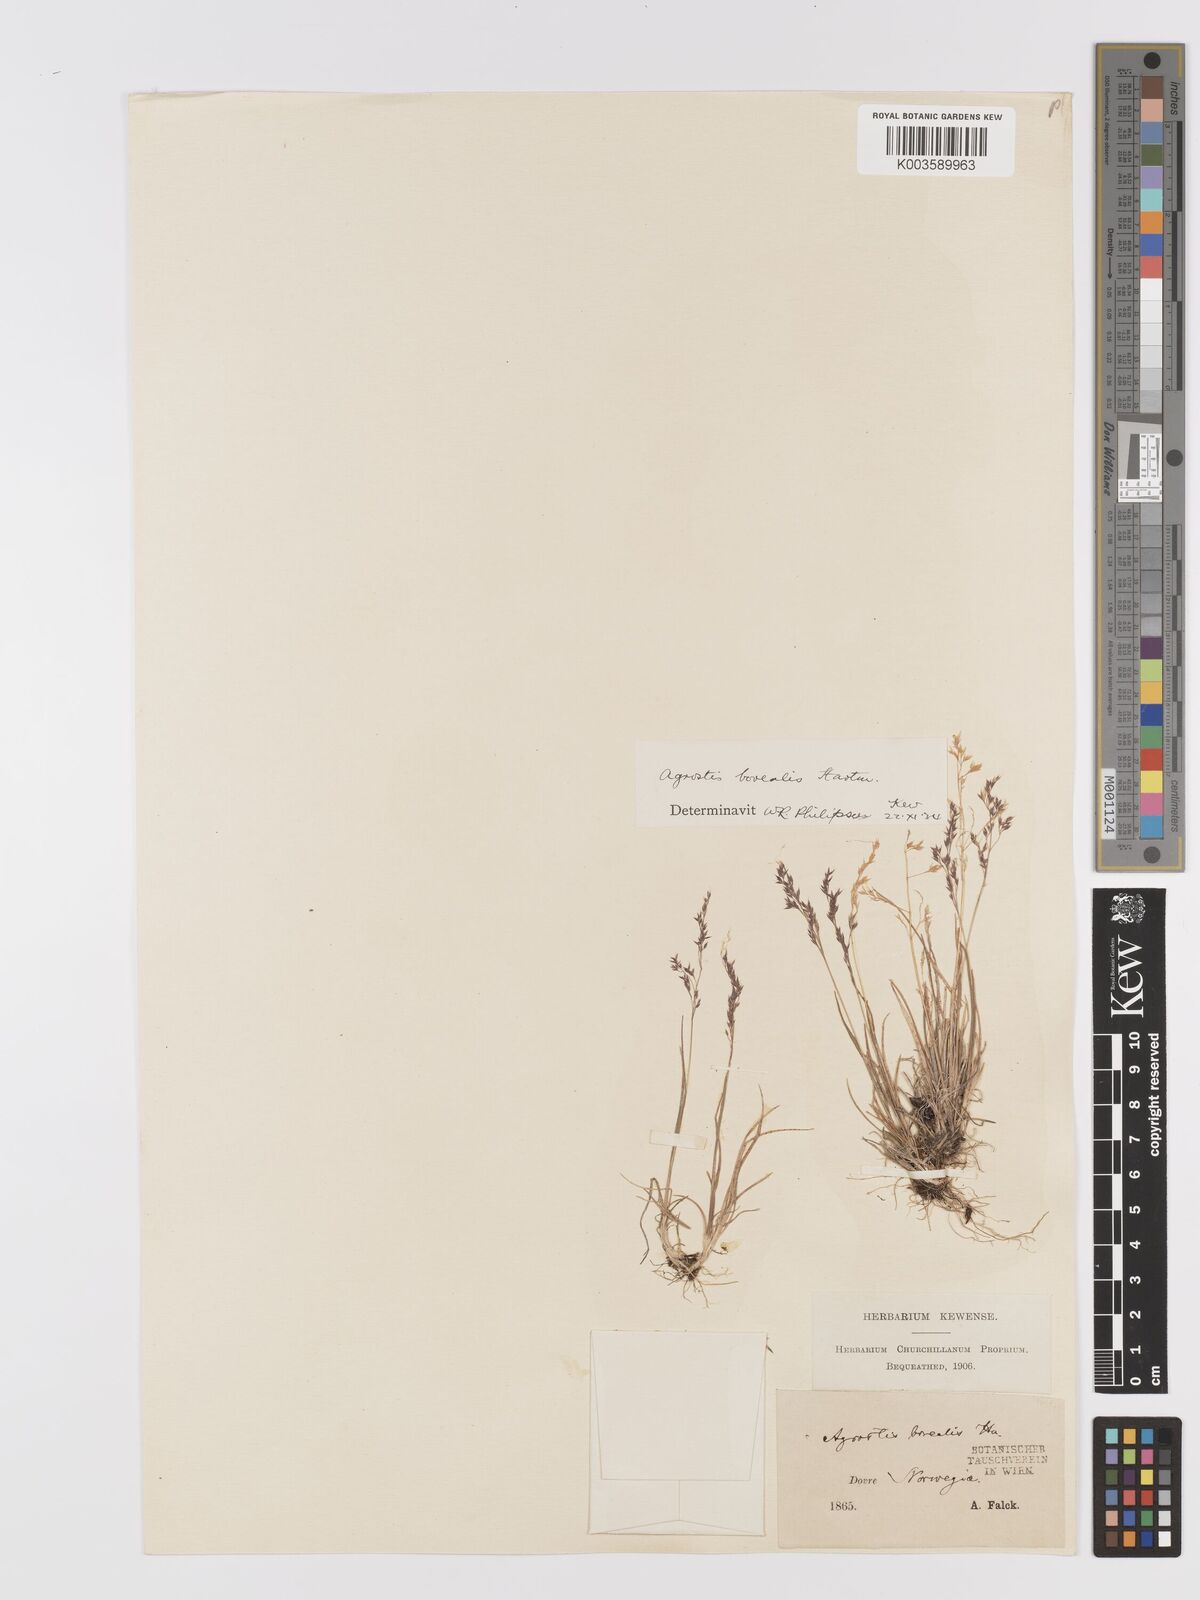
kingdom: Plantae
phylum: Tracheophyta
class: Liliopsida
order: Poales
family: Poaceae
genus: Agrostis
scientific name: Agrostis mertensii
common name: Northern bent
